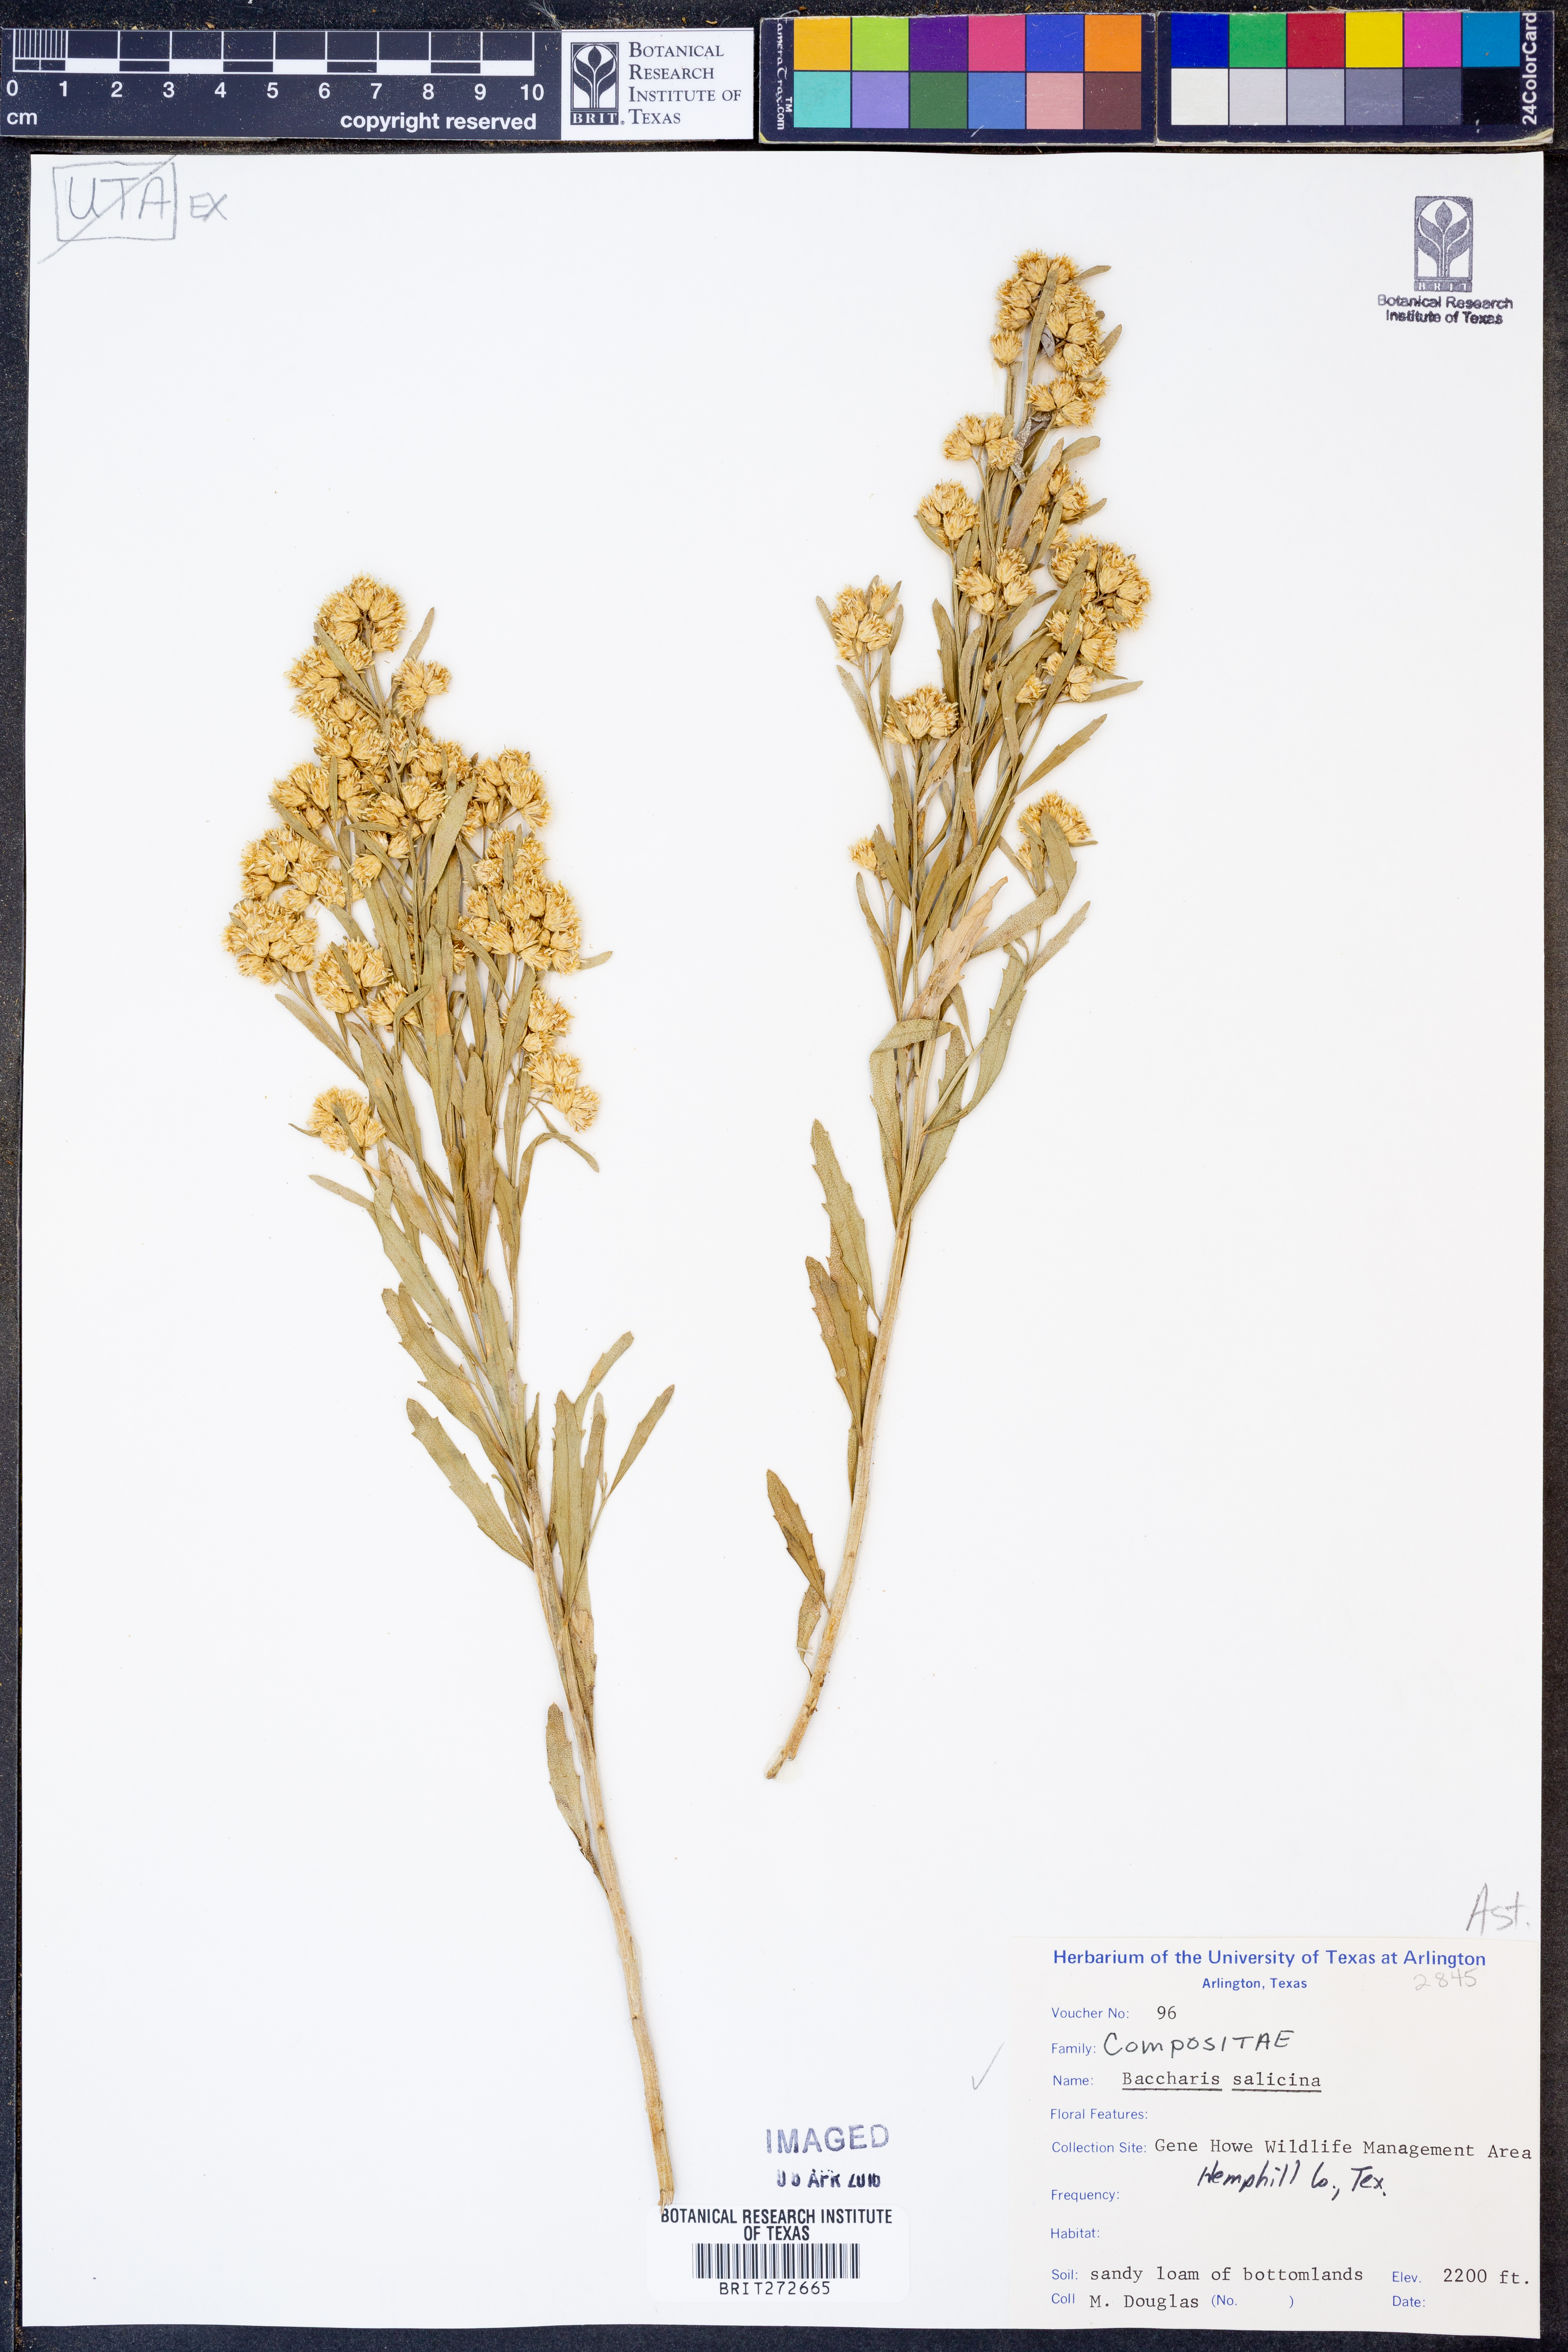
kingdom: Plantae
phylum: Tracheophyta
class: Magnoliopsida
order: Asterales
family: Asteraceae
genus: Baccharis
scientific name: Baccharis salicina
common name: Willow baccharis
